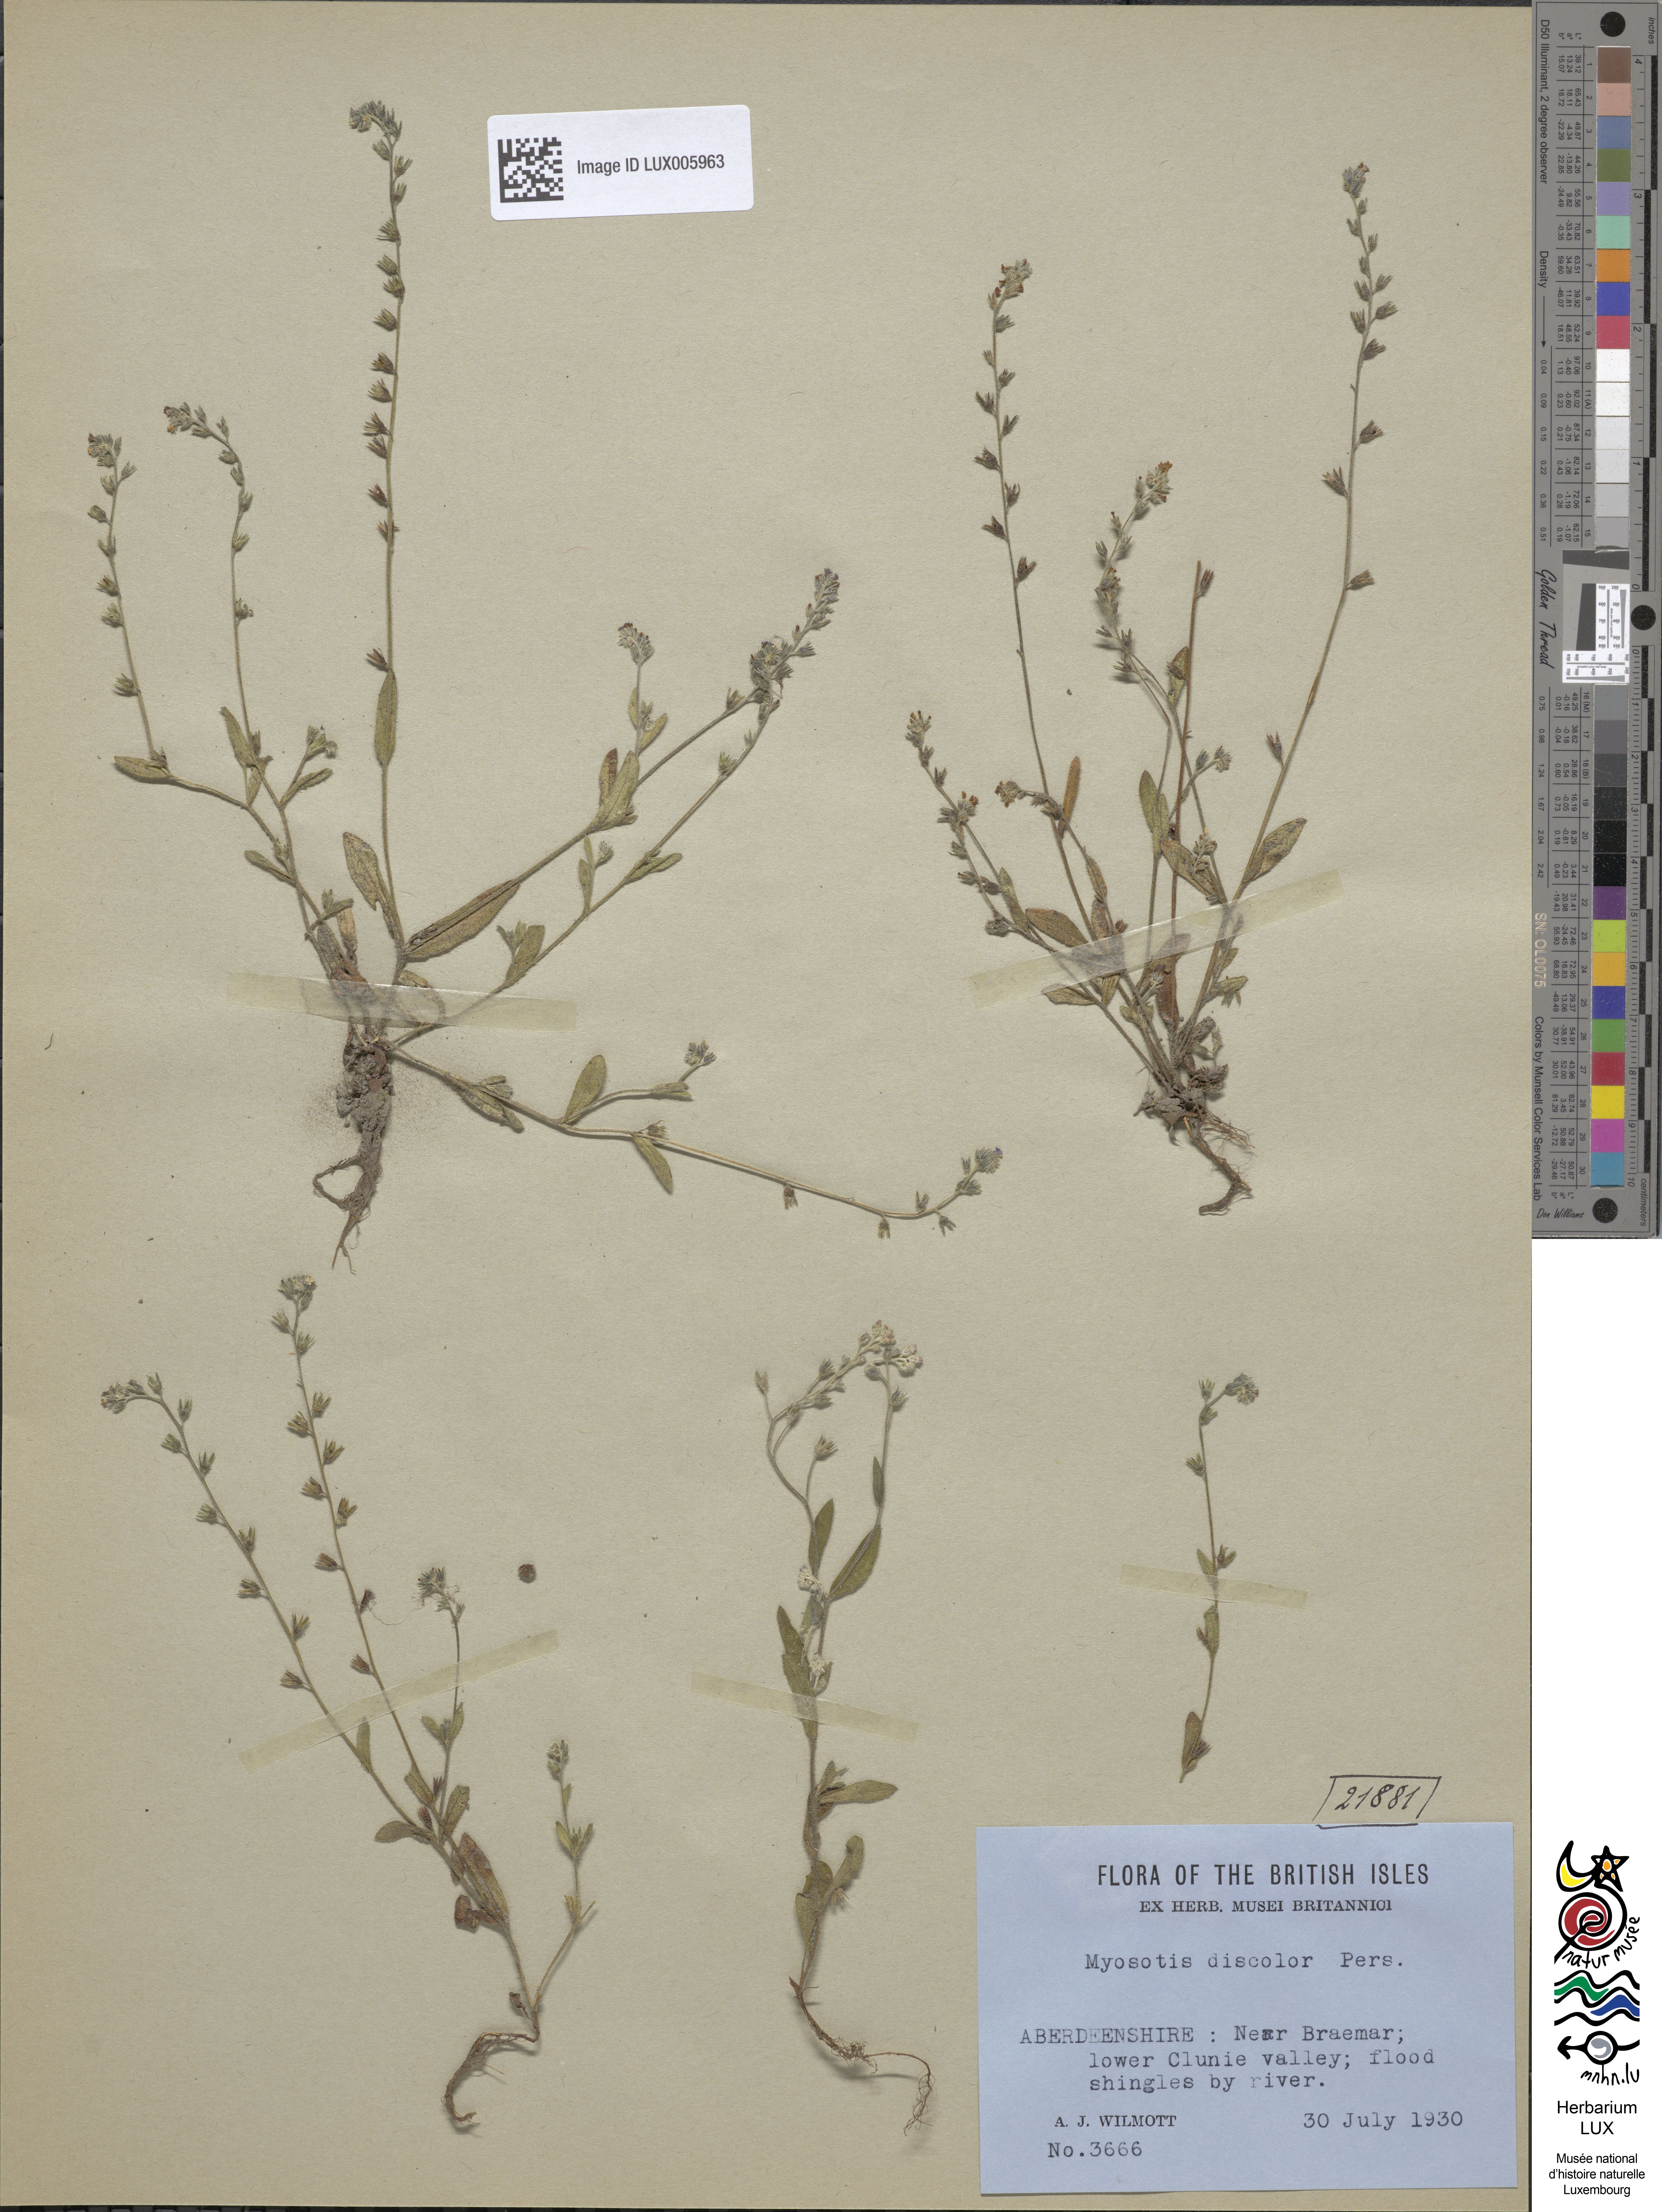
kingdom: Plantae
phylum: Tracheophyta
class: Magnoliopsida
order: Boraginales
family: Boraginaceae
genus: Myosotis
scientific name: Myosotis discolor
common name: Changing forget-me-not
